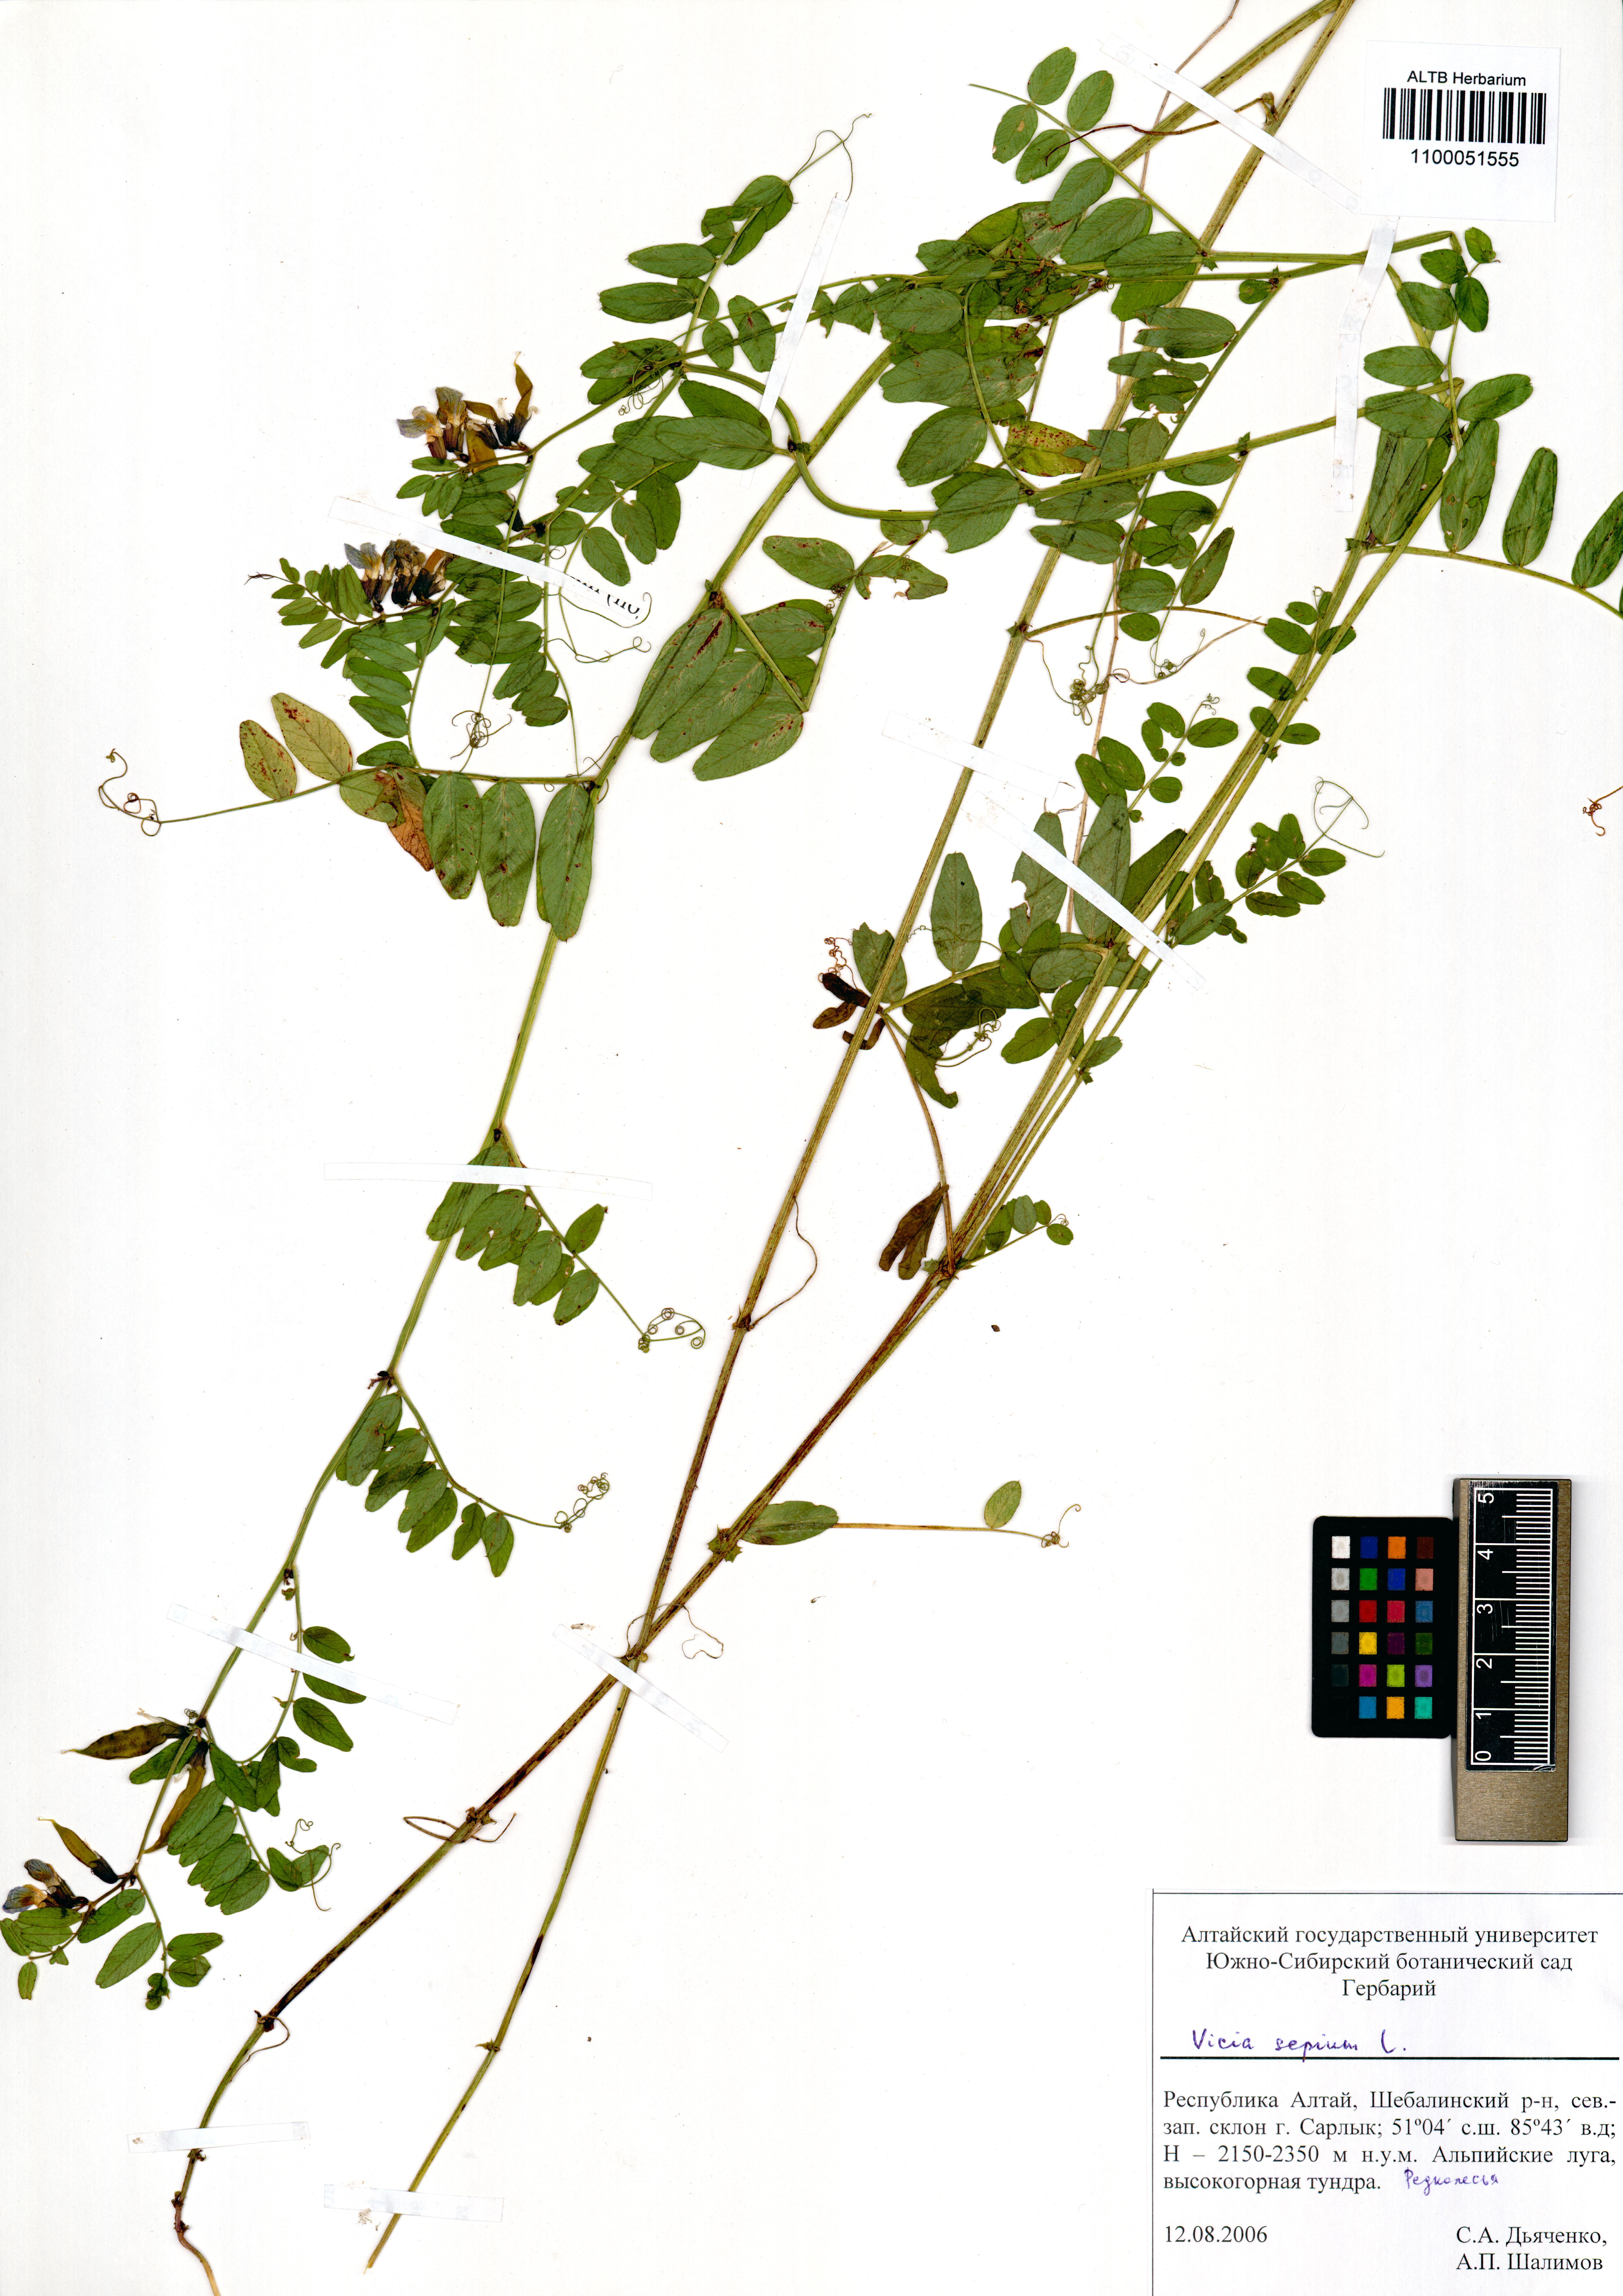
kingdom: Plantae
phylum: Tracheophyta
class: Magnoliopsida
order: Fabales
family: Fabaceae
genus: Vicia
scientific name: Vicia sepium
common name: Bush vetch
